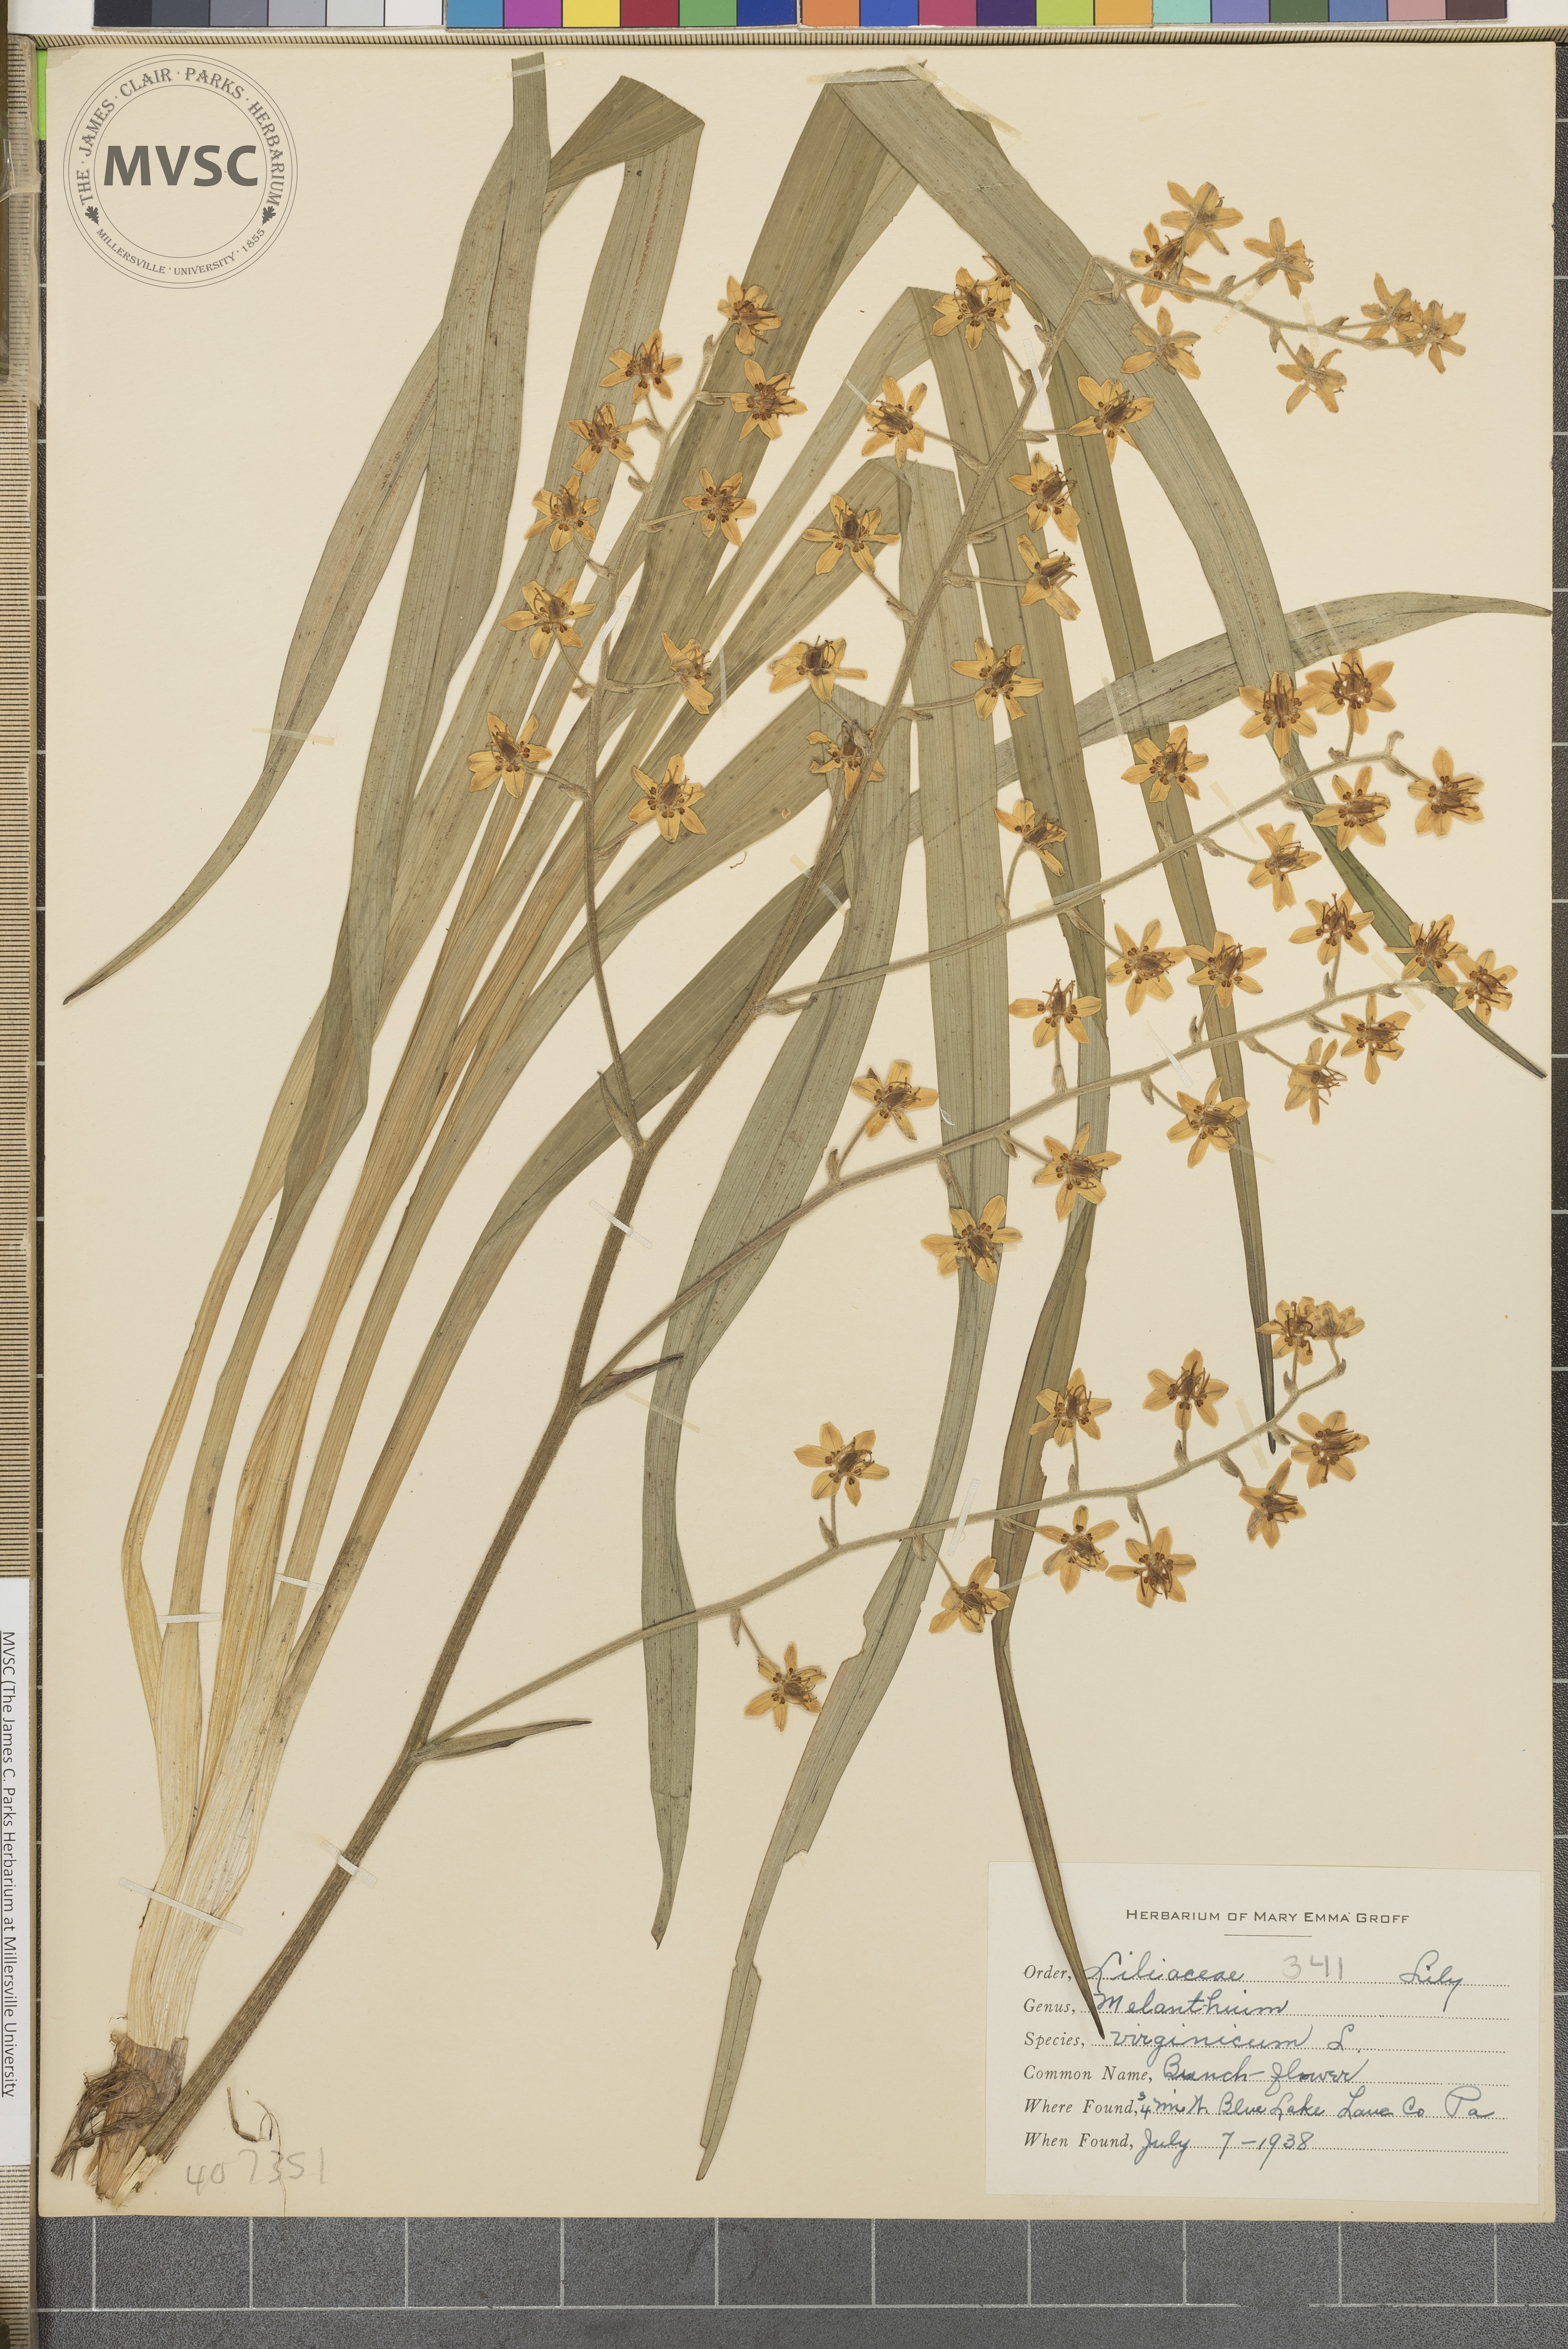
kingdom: Plantae
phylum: Tracheophyta
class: Liliopsida
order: Liliales
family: Melanthiaceae
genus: Melanthium
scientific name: Melanthium virginicum
